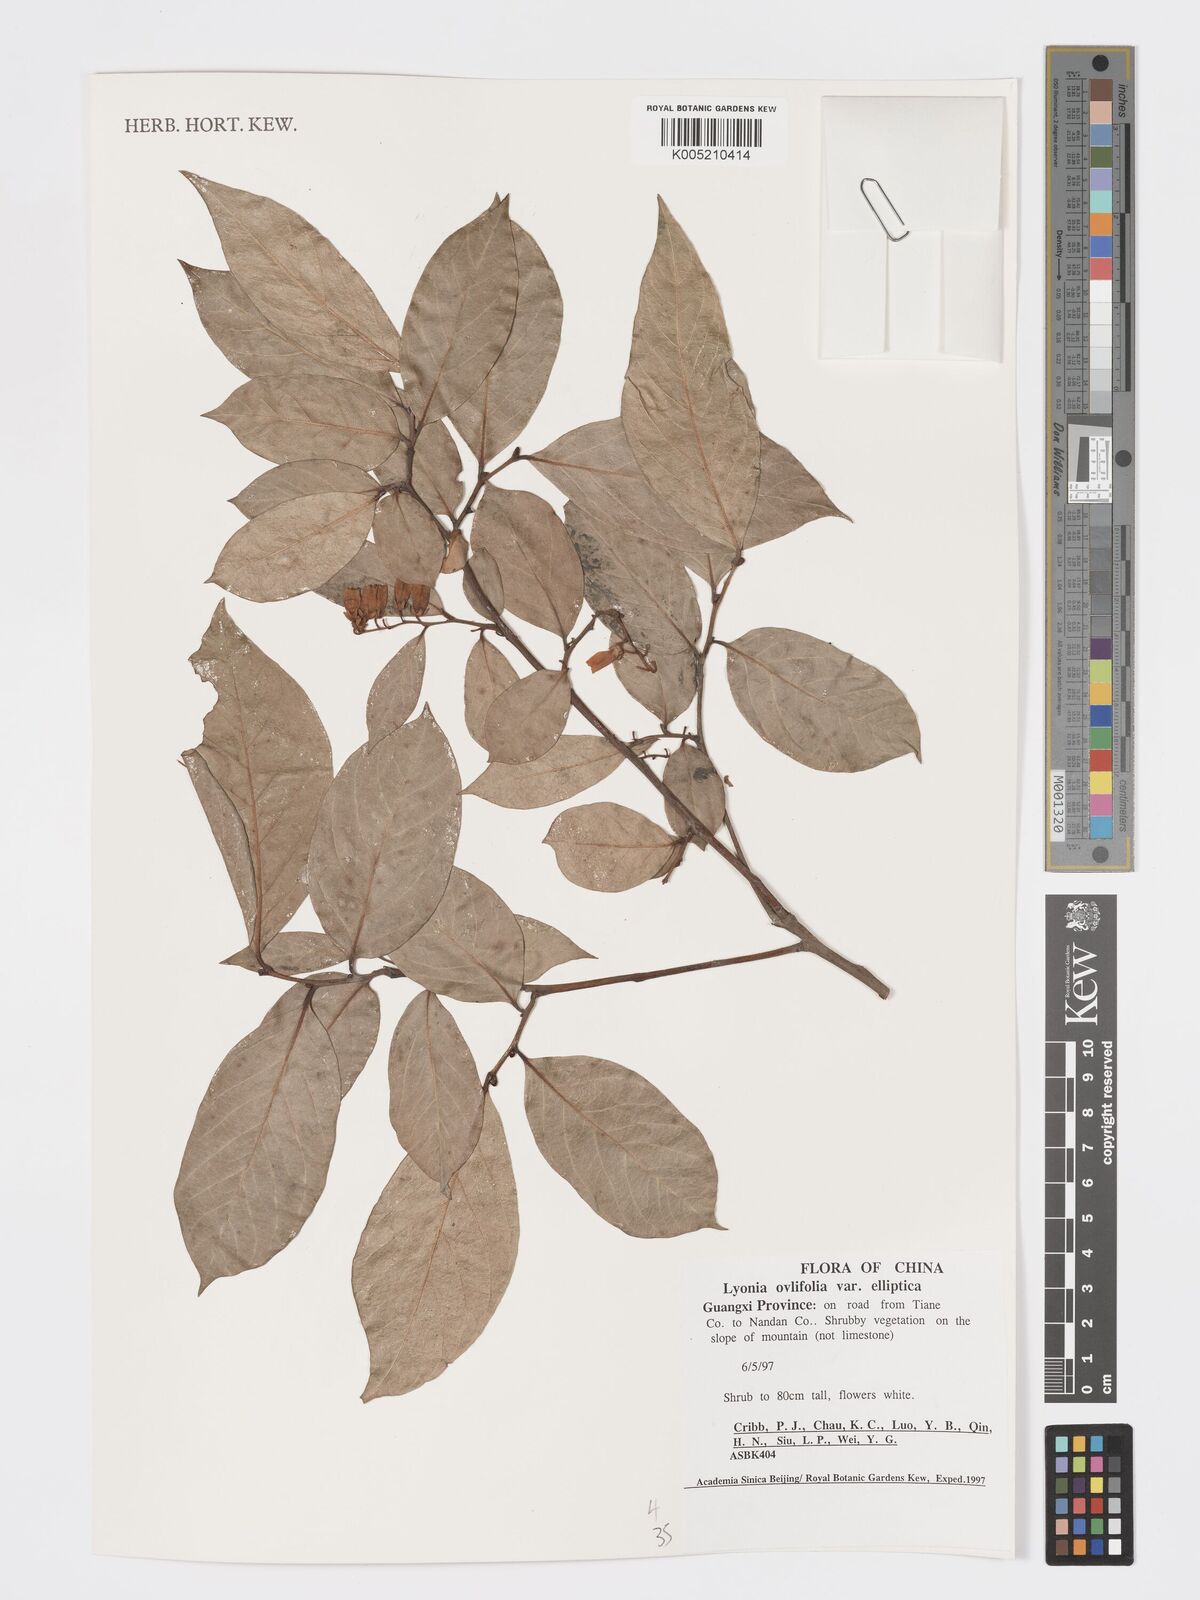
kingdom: Plantae
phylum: Tracheophyta
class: Magnoliopsida
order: Ericales
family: Ericaceae
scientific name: Ericaceae
